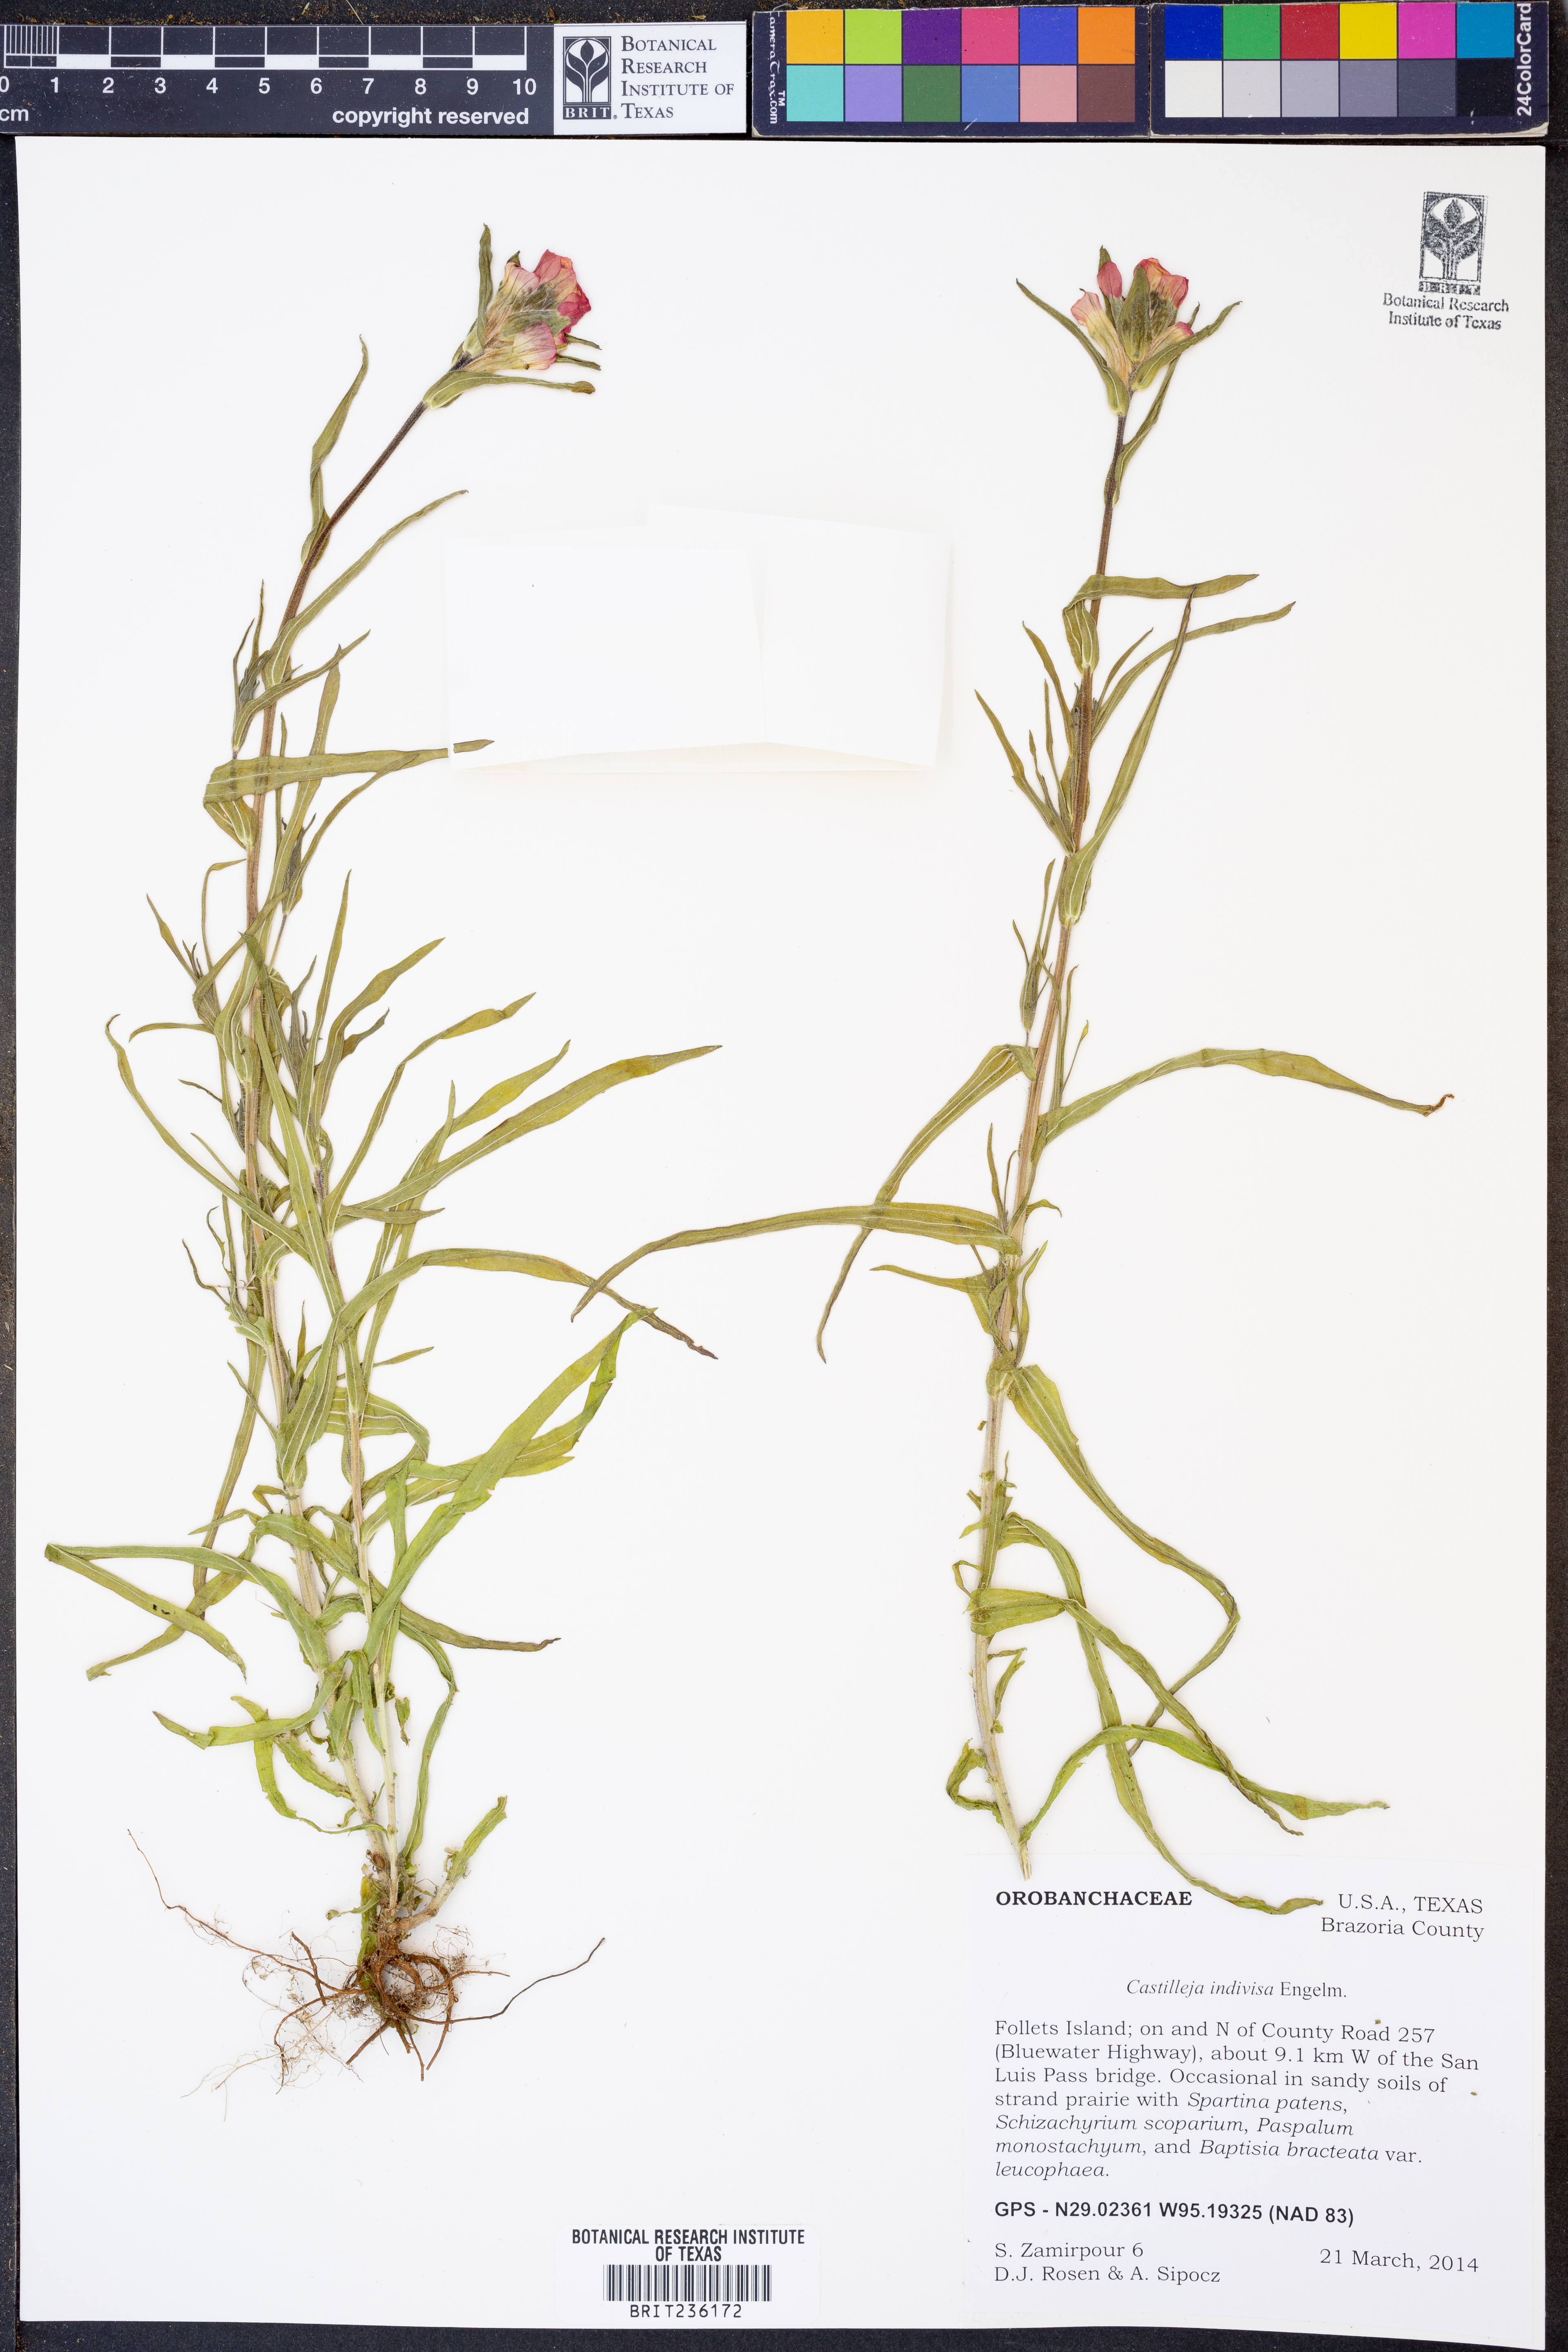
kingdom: Plantae
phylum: Tracheophyta
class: Magnoliopsida
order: Lamiales
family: Orobanchaceae
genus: Castilleja
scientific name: Castilleja indivisa
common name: Texas paintbrush
